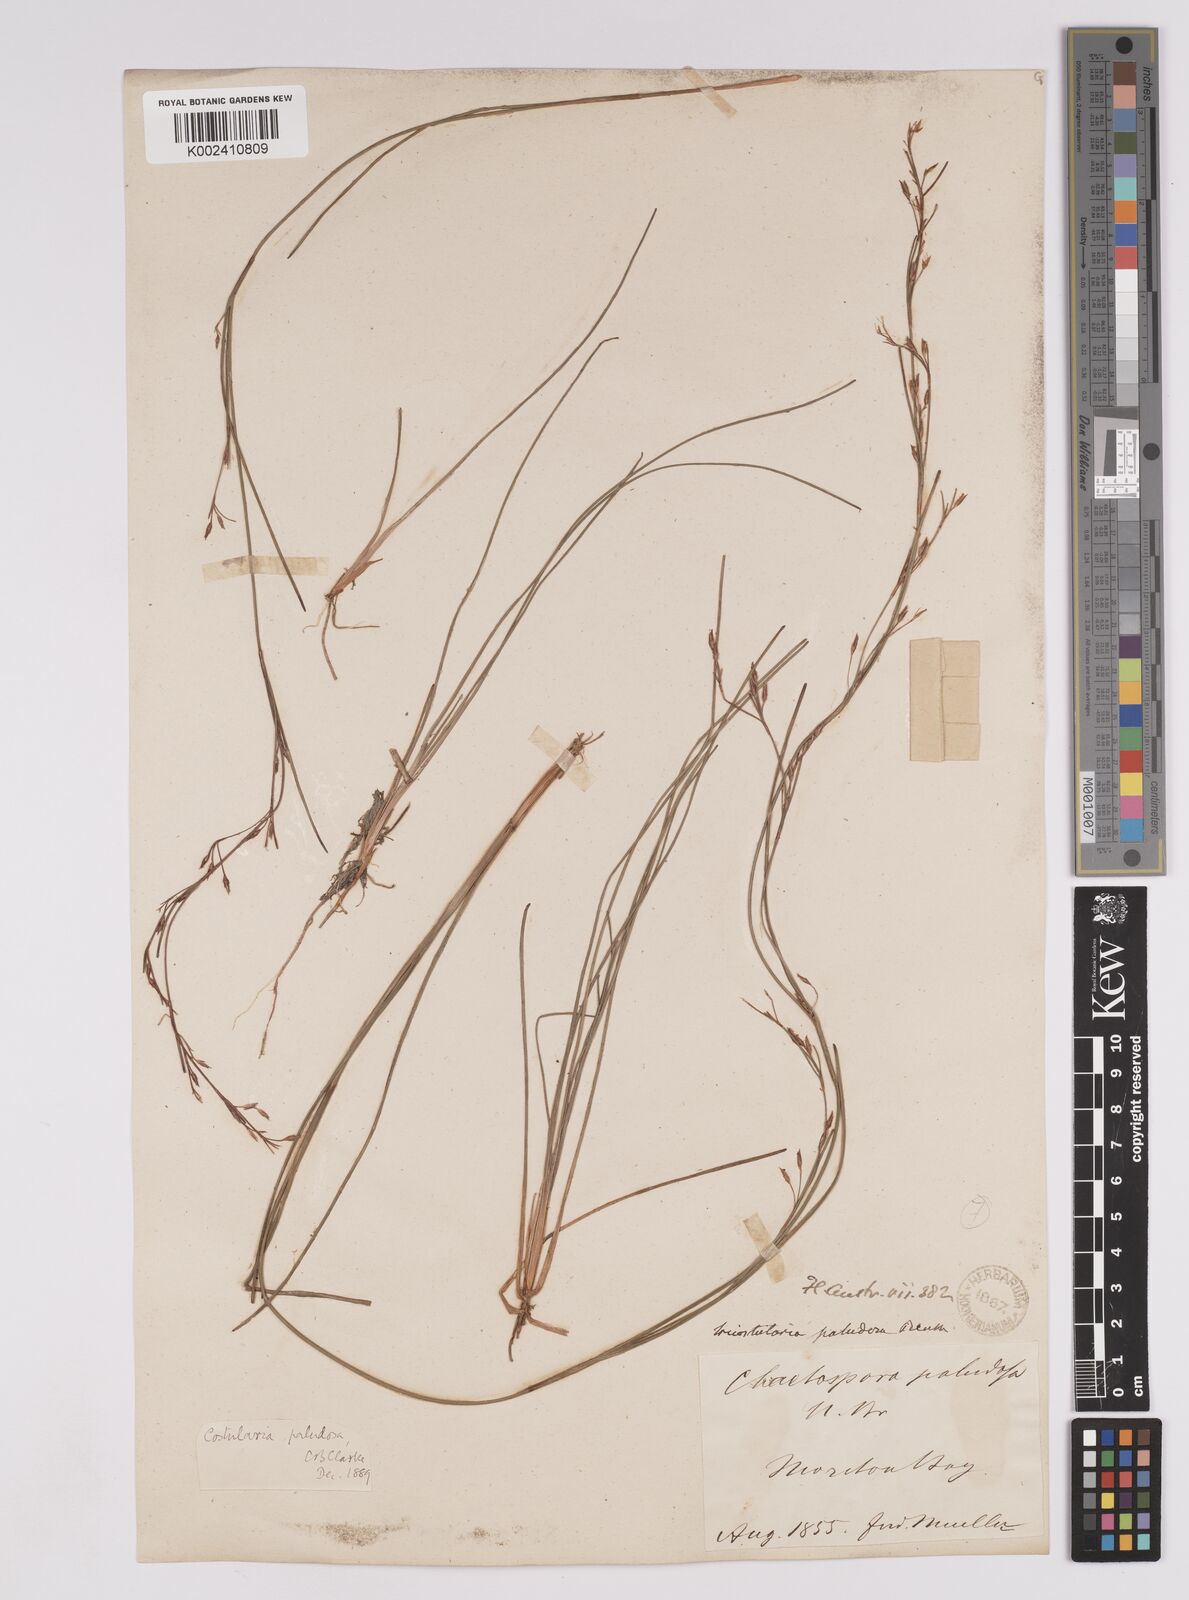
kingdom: Plantae
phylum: Tracheophyta
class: Liliopsida
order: Poales
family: Cyperaceae
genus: Anthelepis
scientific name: Anthelepis paludosa
